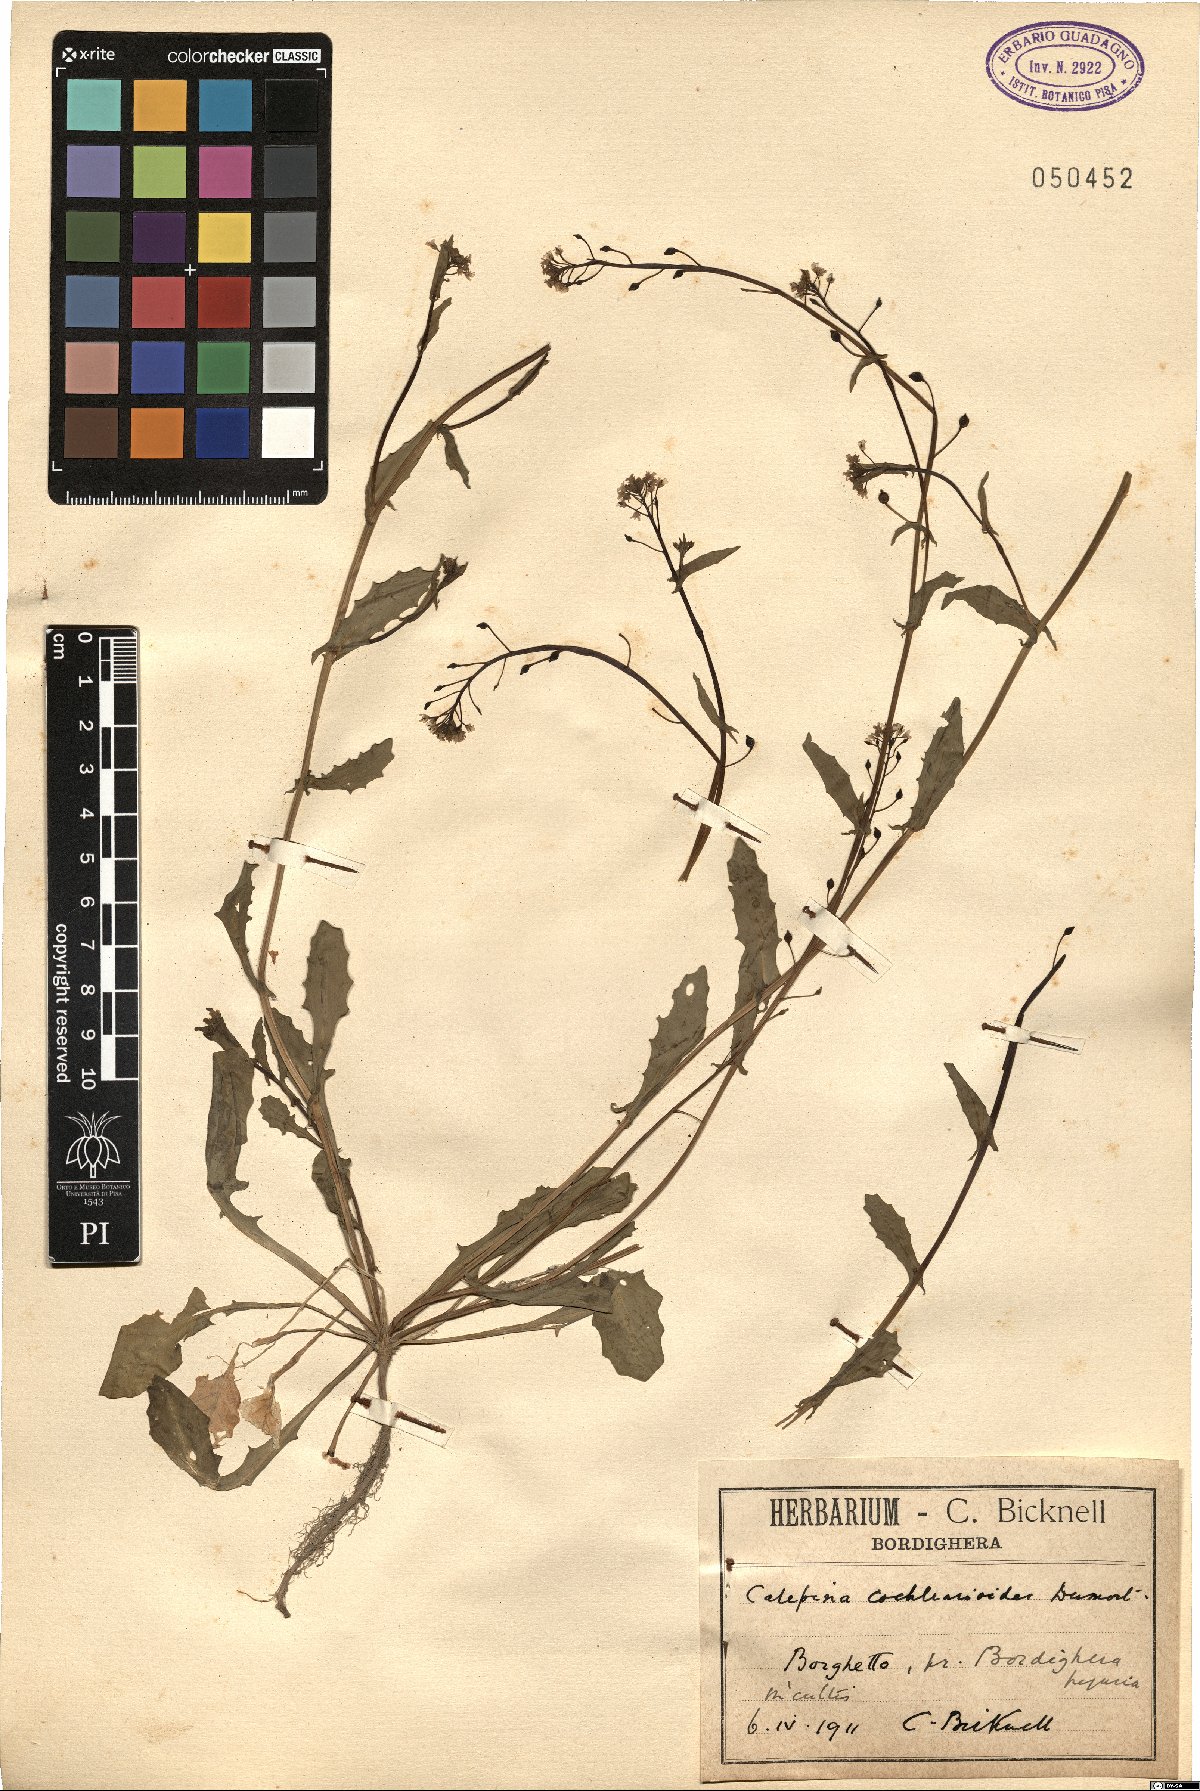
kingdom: Plantae
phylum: Tracheophyta
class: Magnoliopsida
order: Brassicales
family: Brassicaceae
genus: Calepina
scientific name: Calepina cochlearioides
